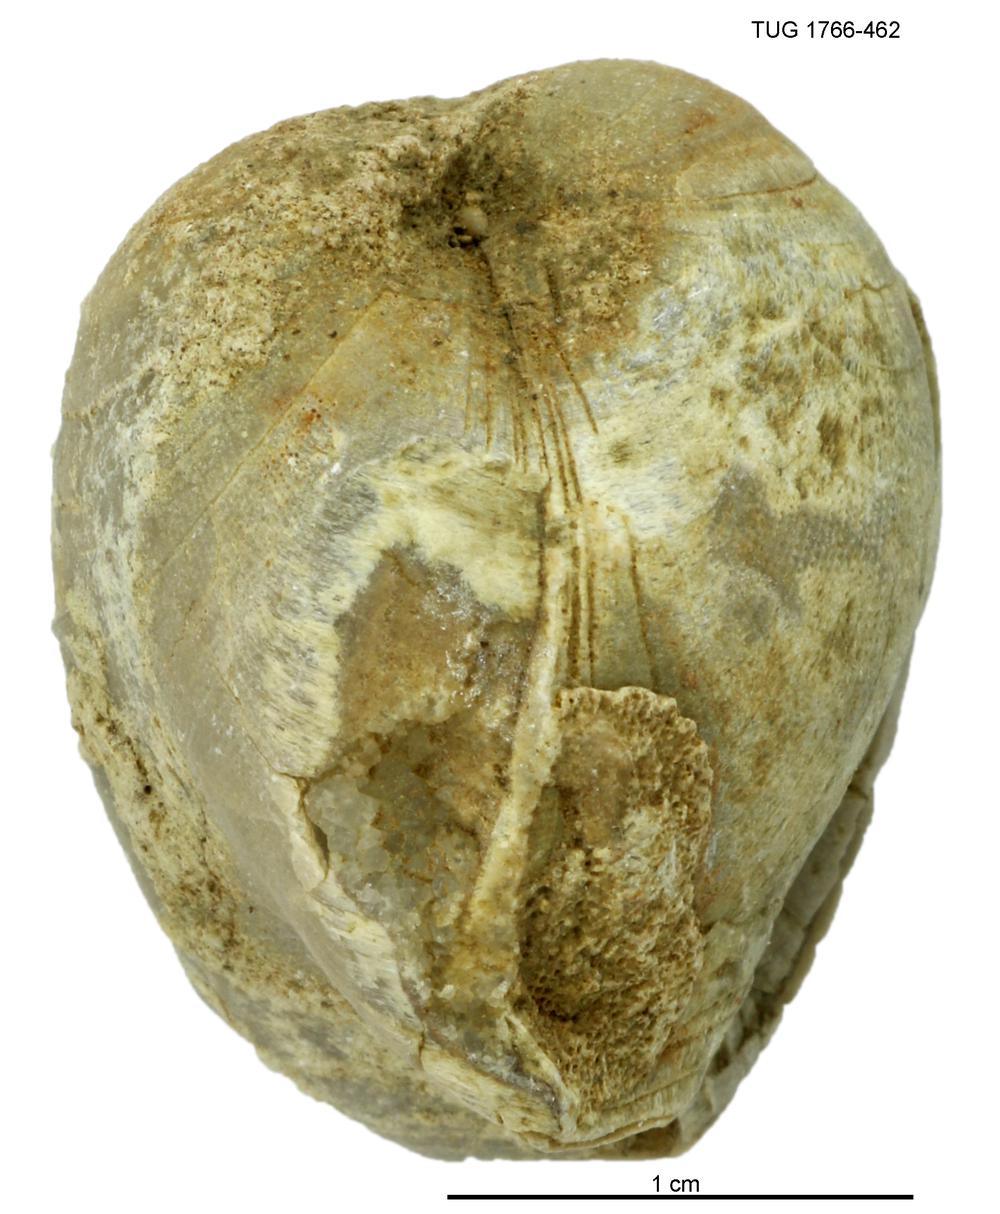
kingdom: Animalia
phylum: Brachiopoda
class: Rhynchonellata
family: Porambonitidae
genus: Porambonites
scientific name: Porambonites
